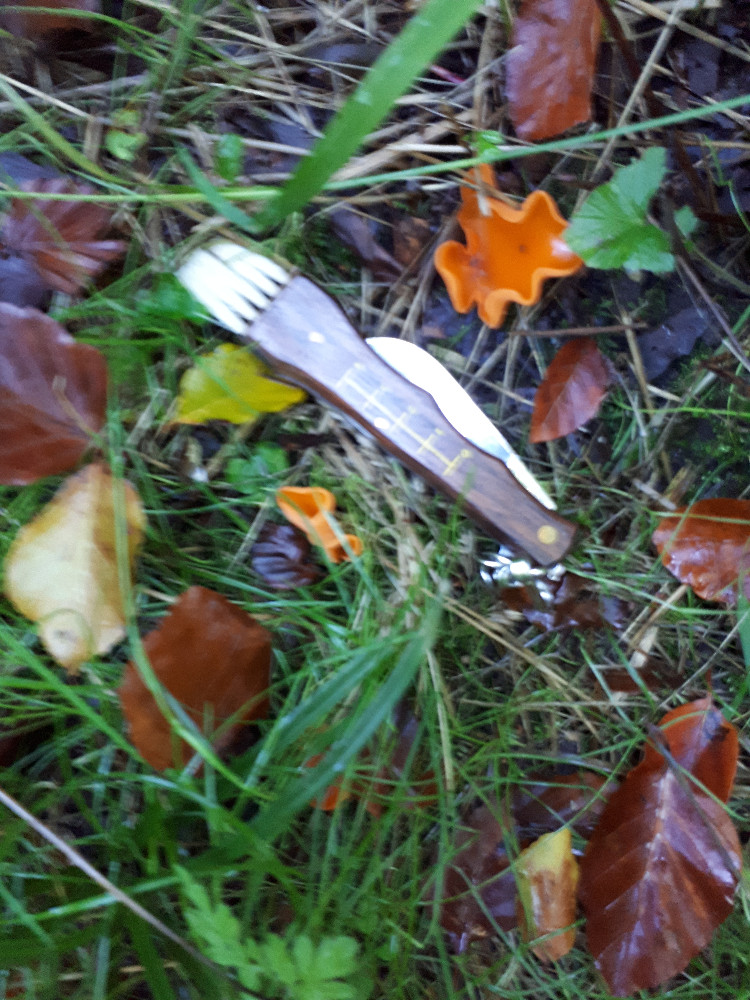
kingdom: Fungi
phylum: Ascomycota
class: Pezizomycetes
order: Pezizales
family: Pyronemataceae
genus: Aleuria
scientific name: Aleuria aurantia
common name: almindelig orangebæger
